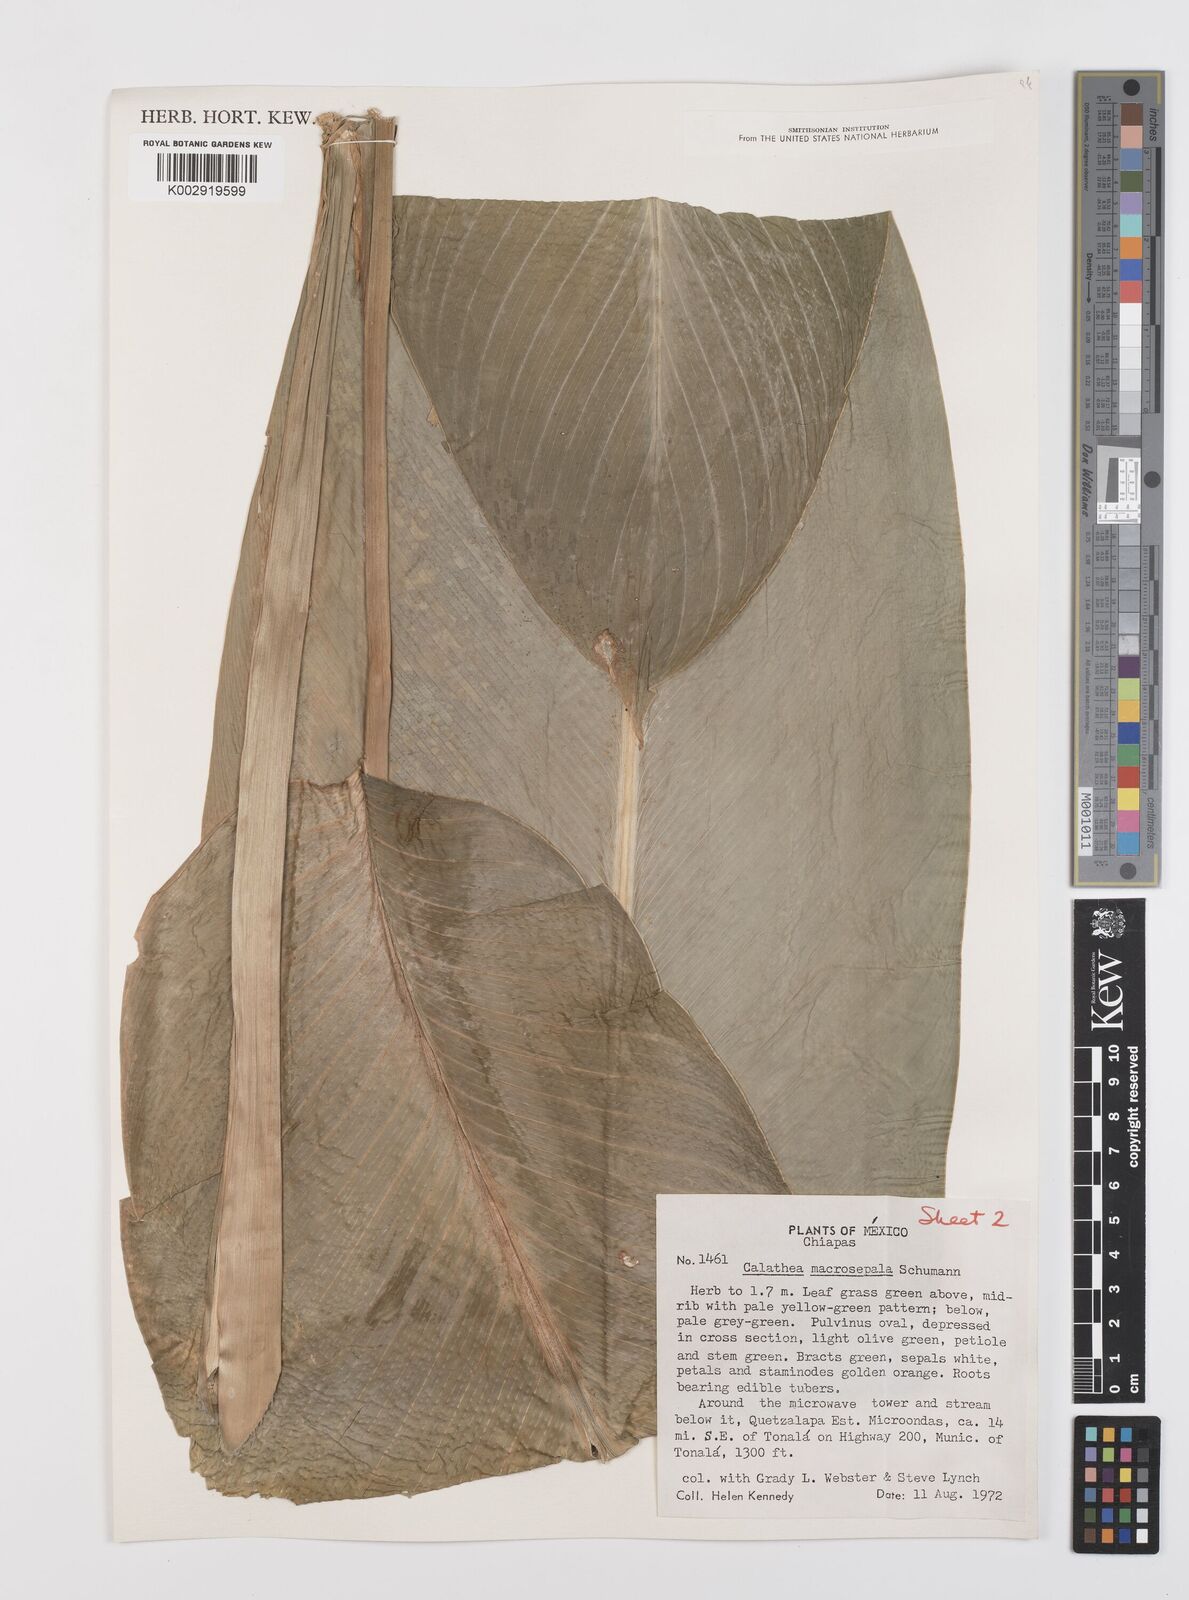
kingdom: Plantae
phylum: Tracheophyta
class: Liliopsida
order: Zingiberales
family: Marantaceae
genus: Goeppertia
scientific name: Goeppertia macrosepala
